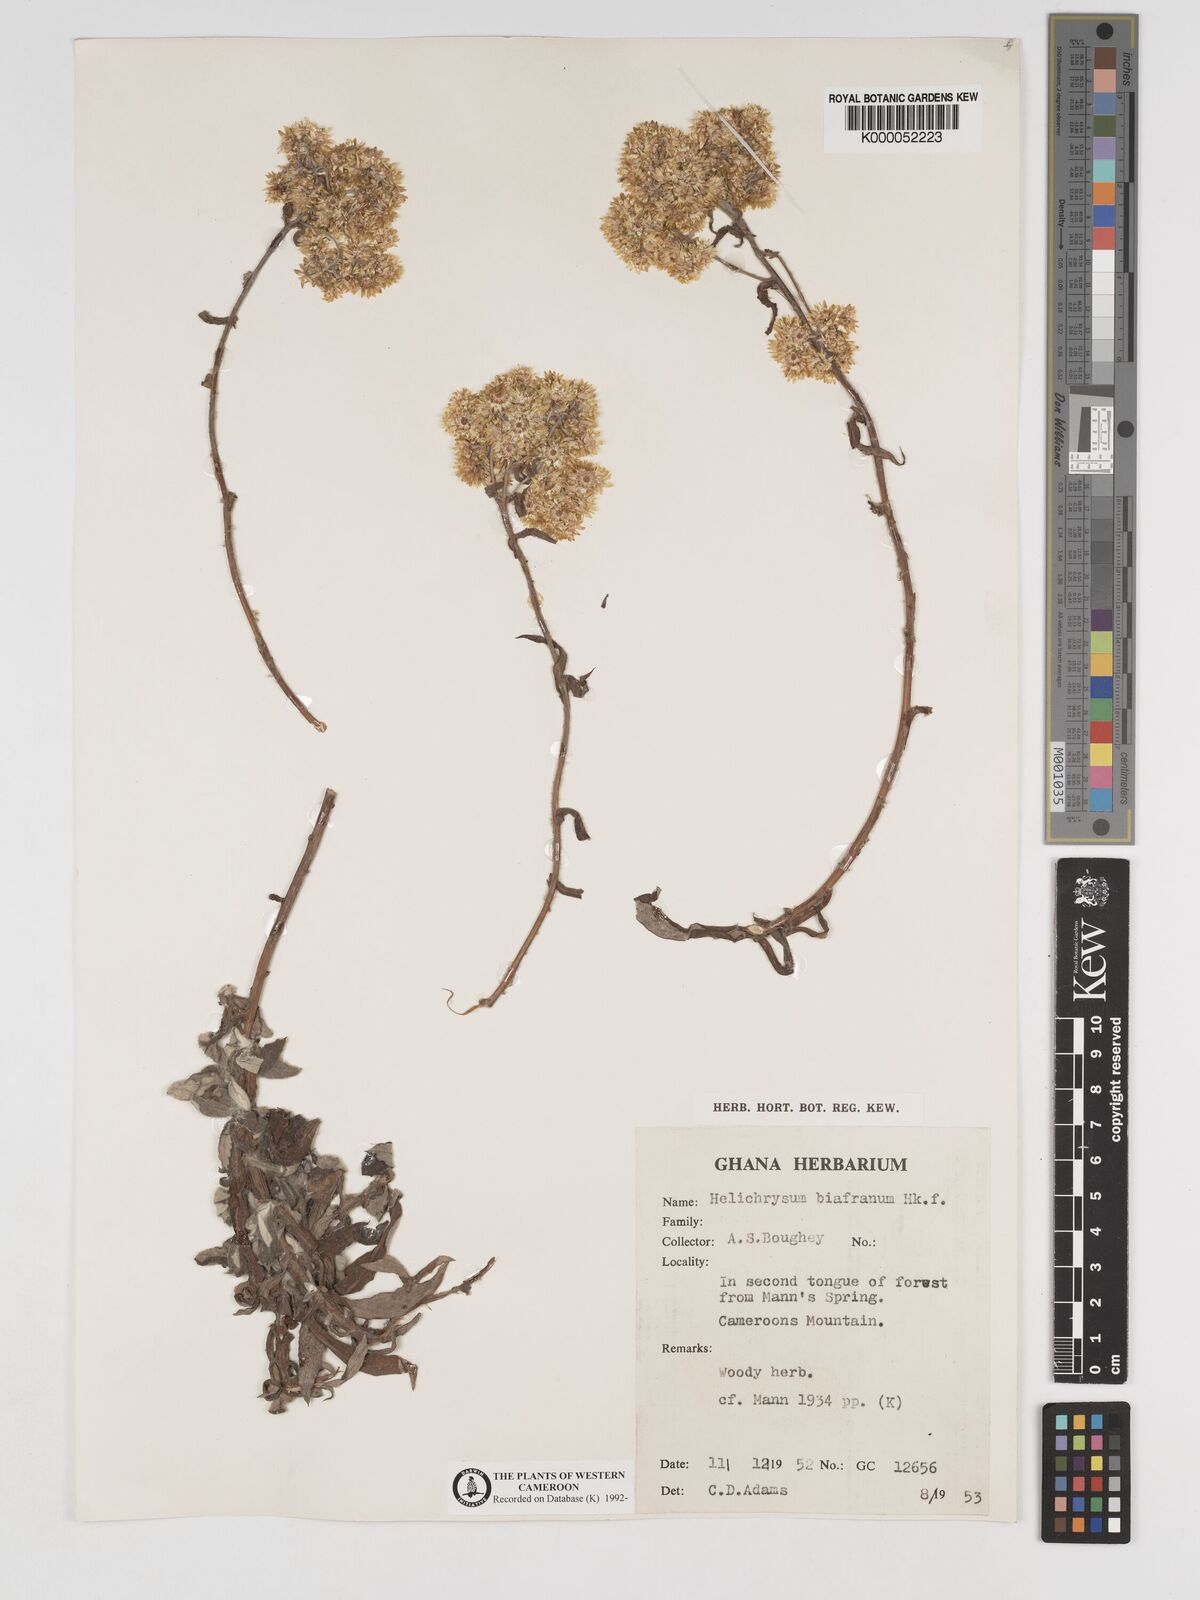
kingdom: Plantae
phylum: Tracheophyta
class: Magnoliopsida
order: Asterales
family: Asteraceae
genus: Helichrysum
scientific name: Helichrysum biafranum
